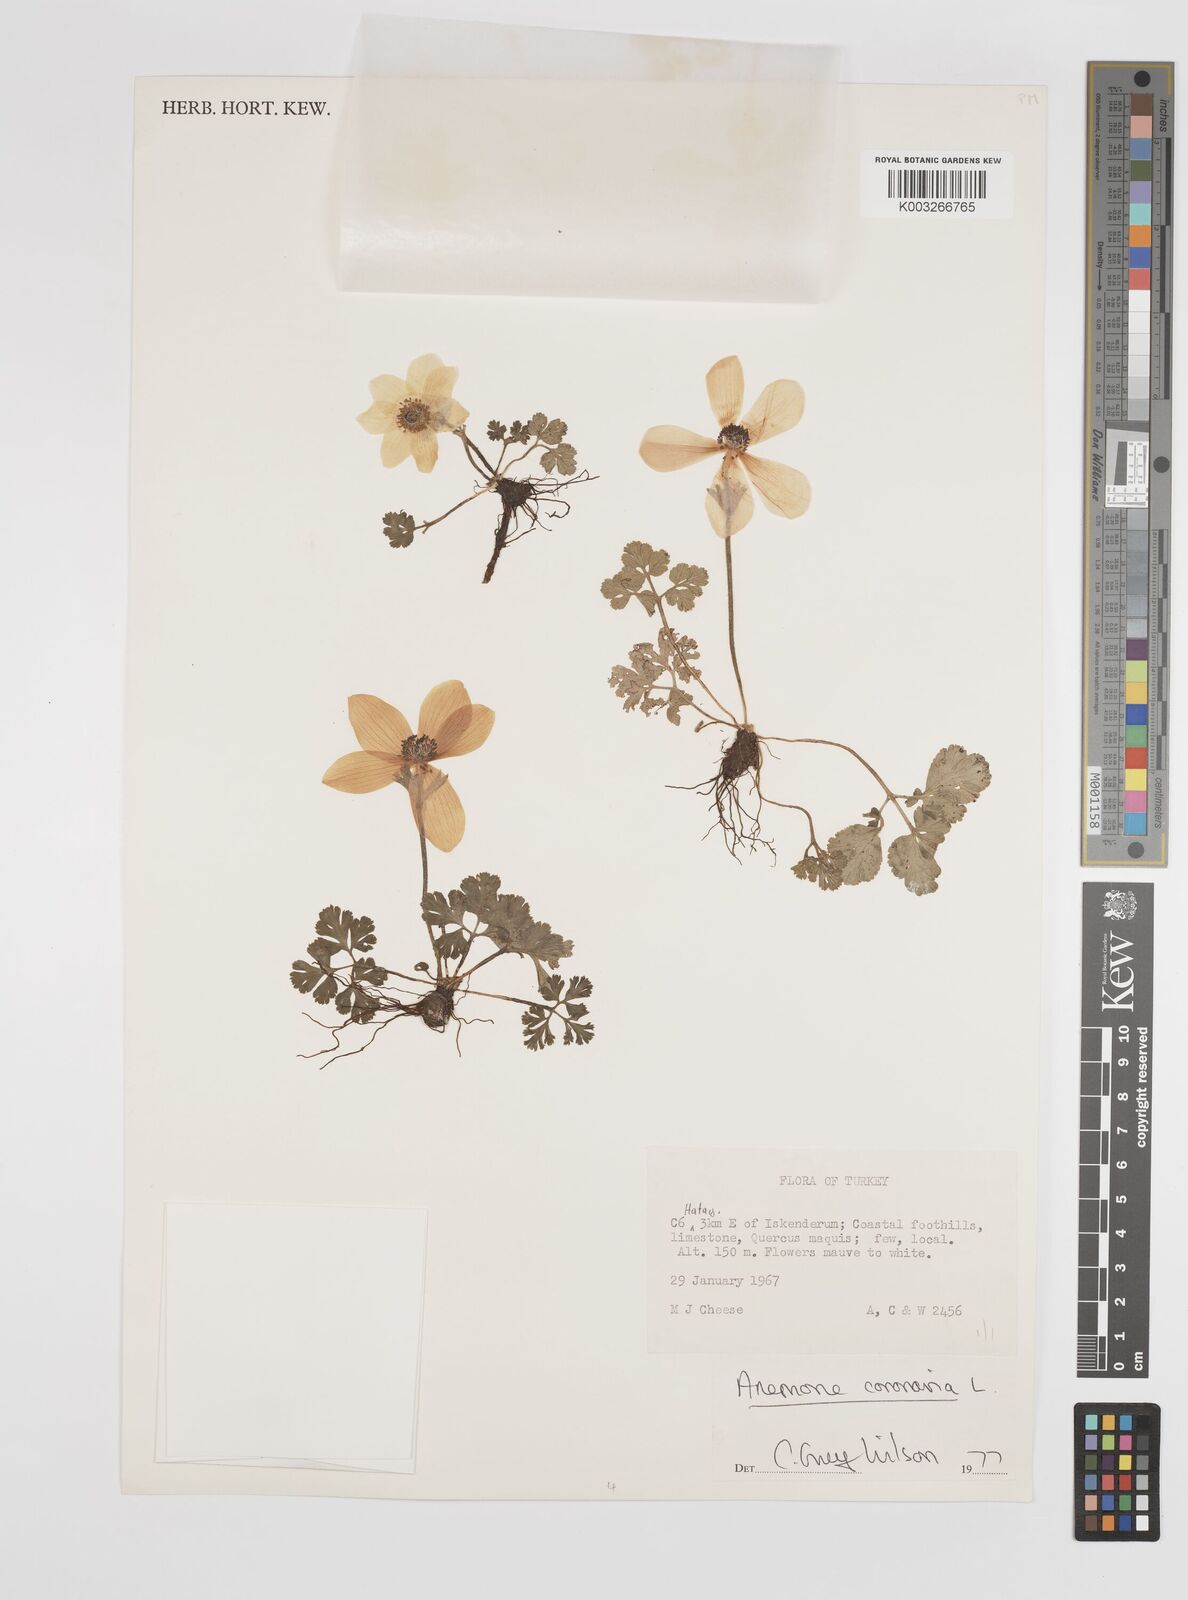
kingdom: Plantae
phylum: Tracheophyta
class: Magnoliopsida
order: Ranunculales
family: Ranunculaceae
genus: Anemone
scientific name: Anemone coronaria
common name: Poppy anemone
